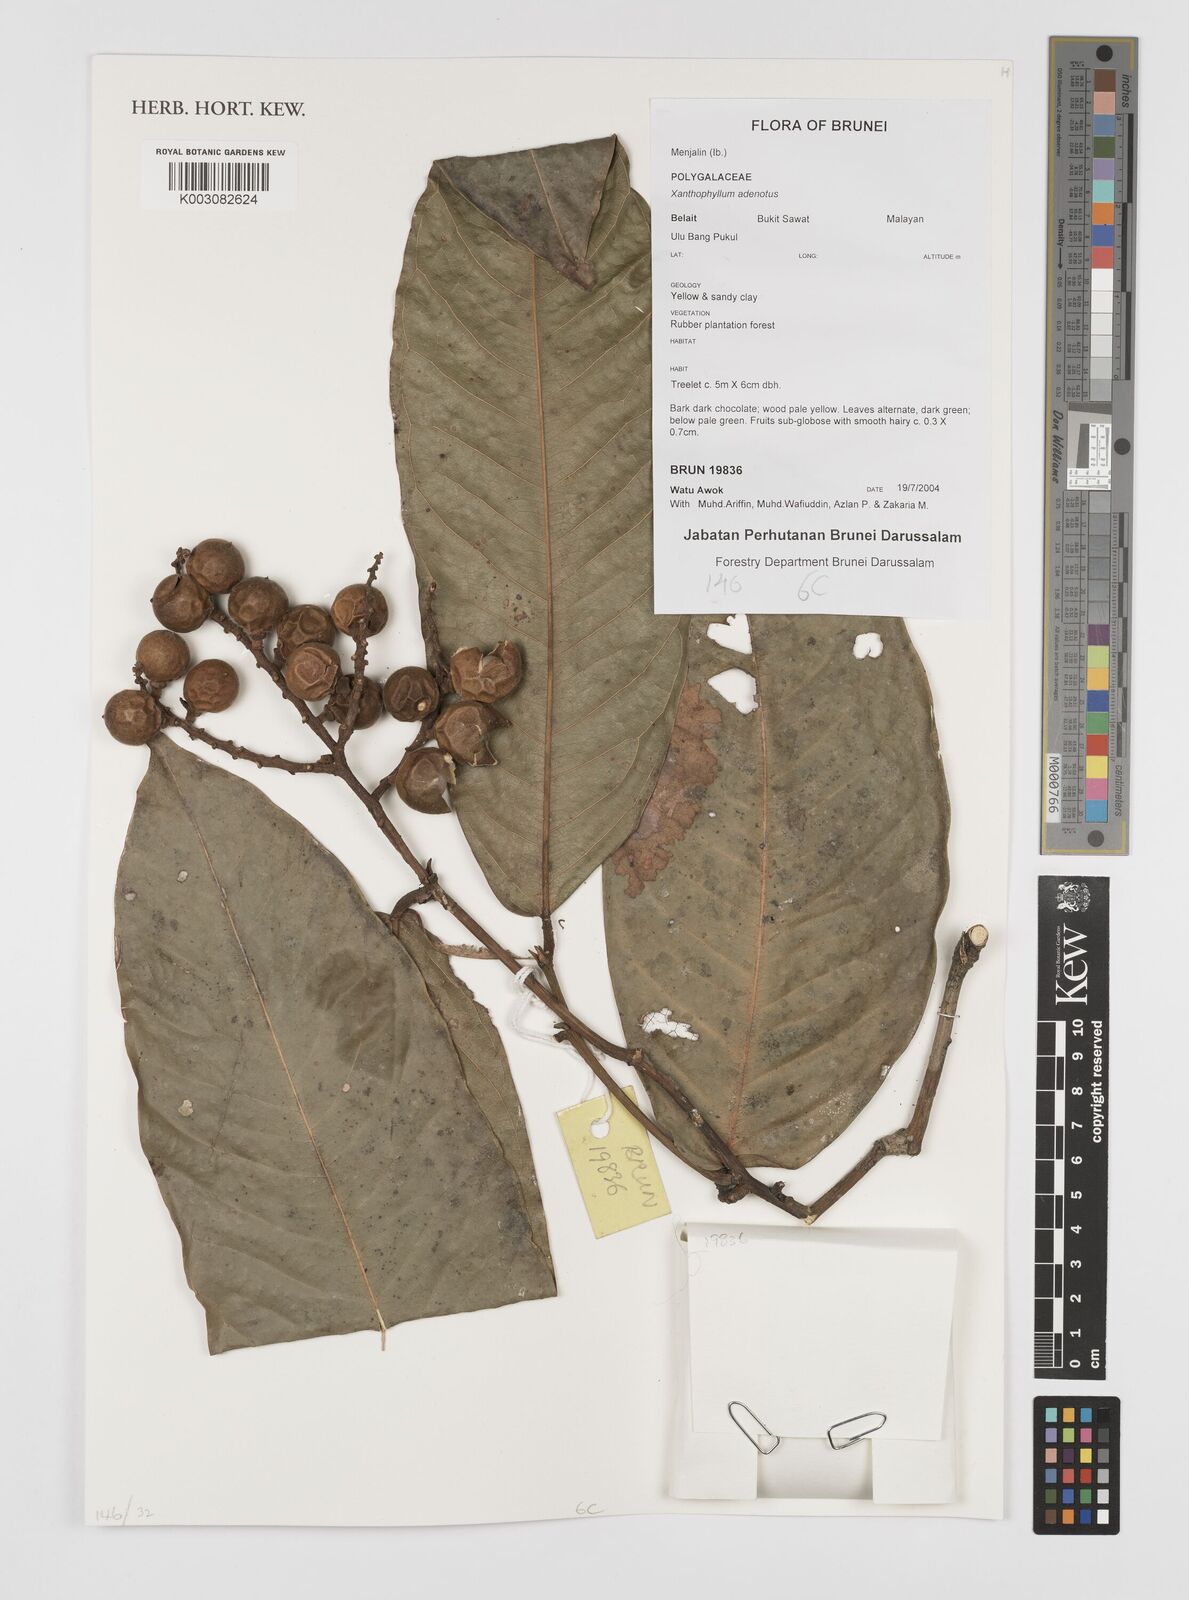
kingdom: Plantae
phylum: Tracheophyta
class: Magnoliopsida
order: Fabales
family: Polygalaceae
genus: Xanthophyllum
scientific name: Xanthophyllum adenotus
